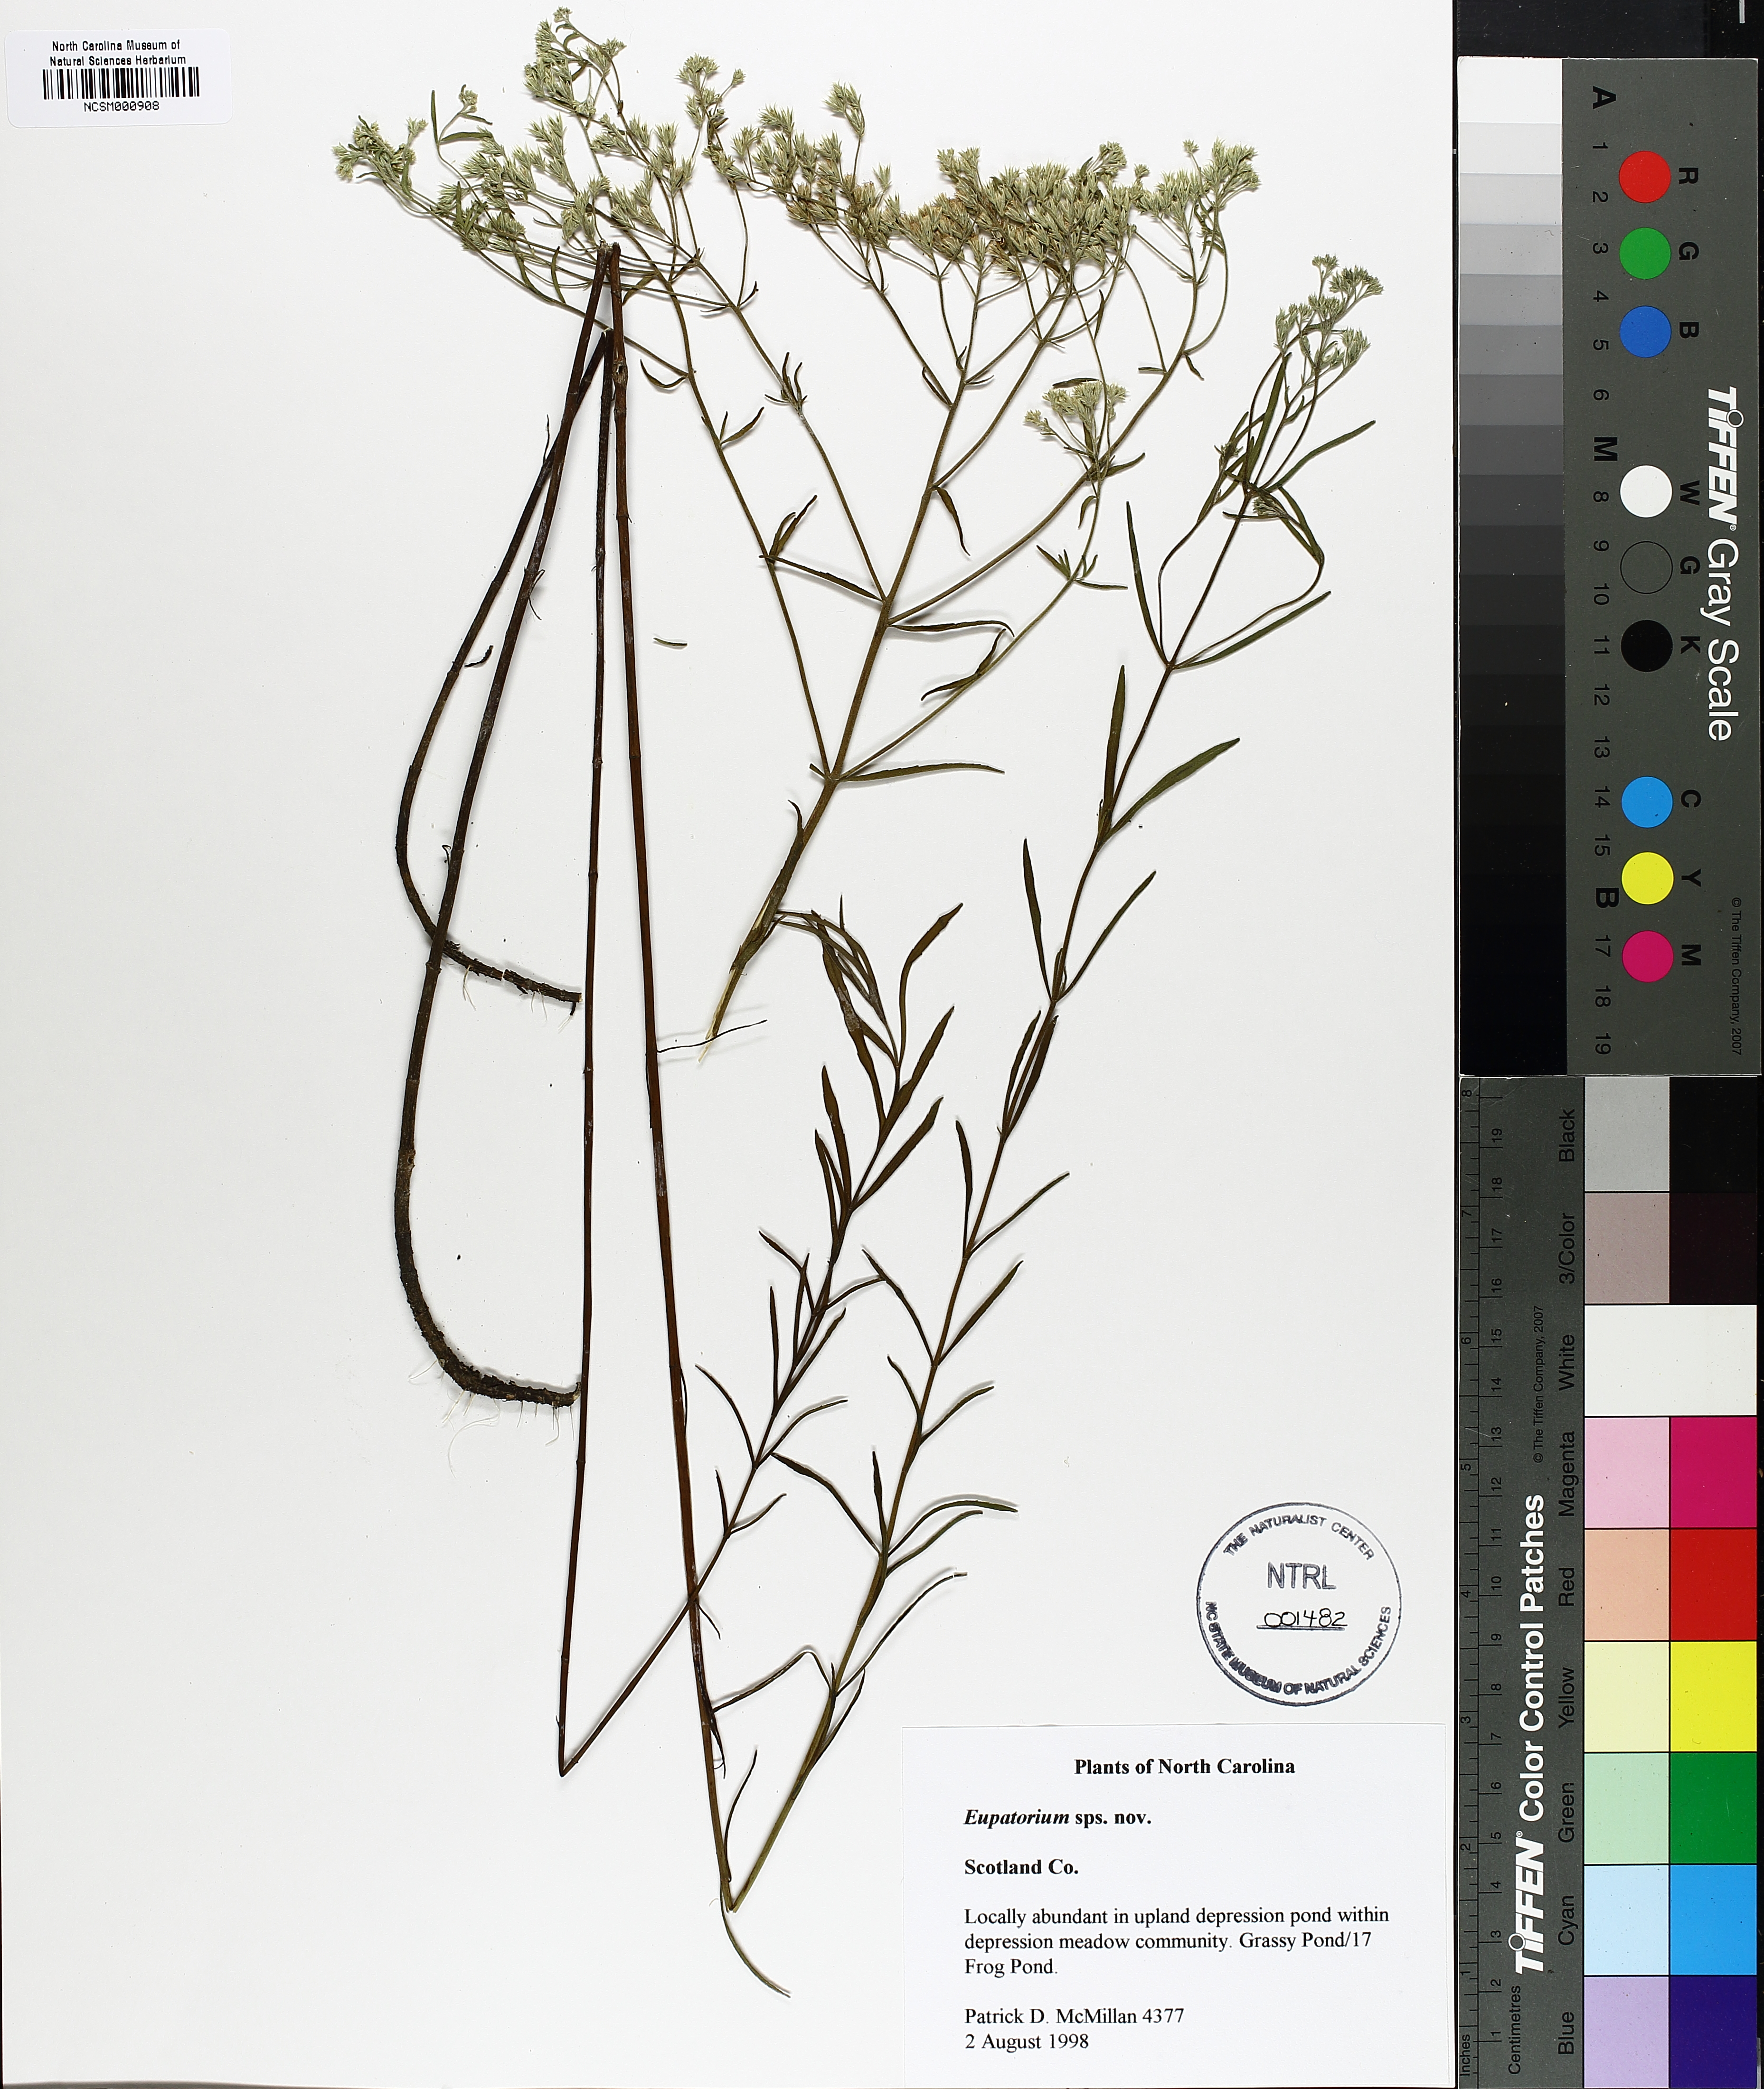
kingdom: Plantae
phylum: Tracheophyta
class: Magnoliopsida
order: Asterales
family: Asteraceae
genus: Eupatorium
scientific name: Eupatorium
